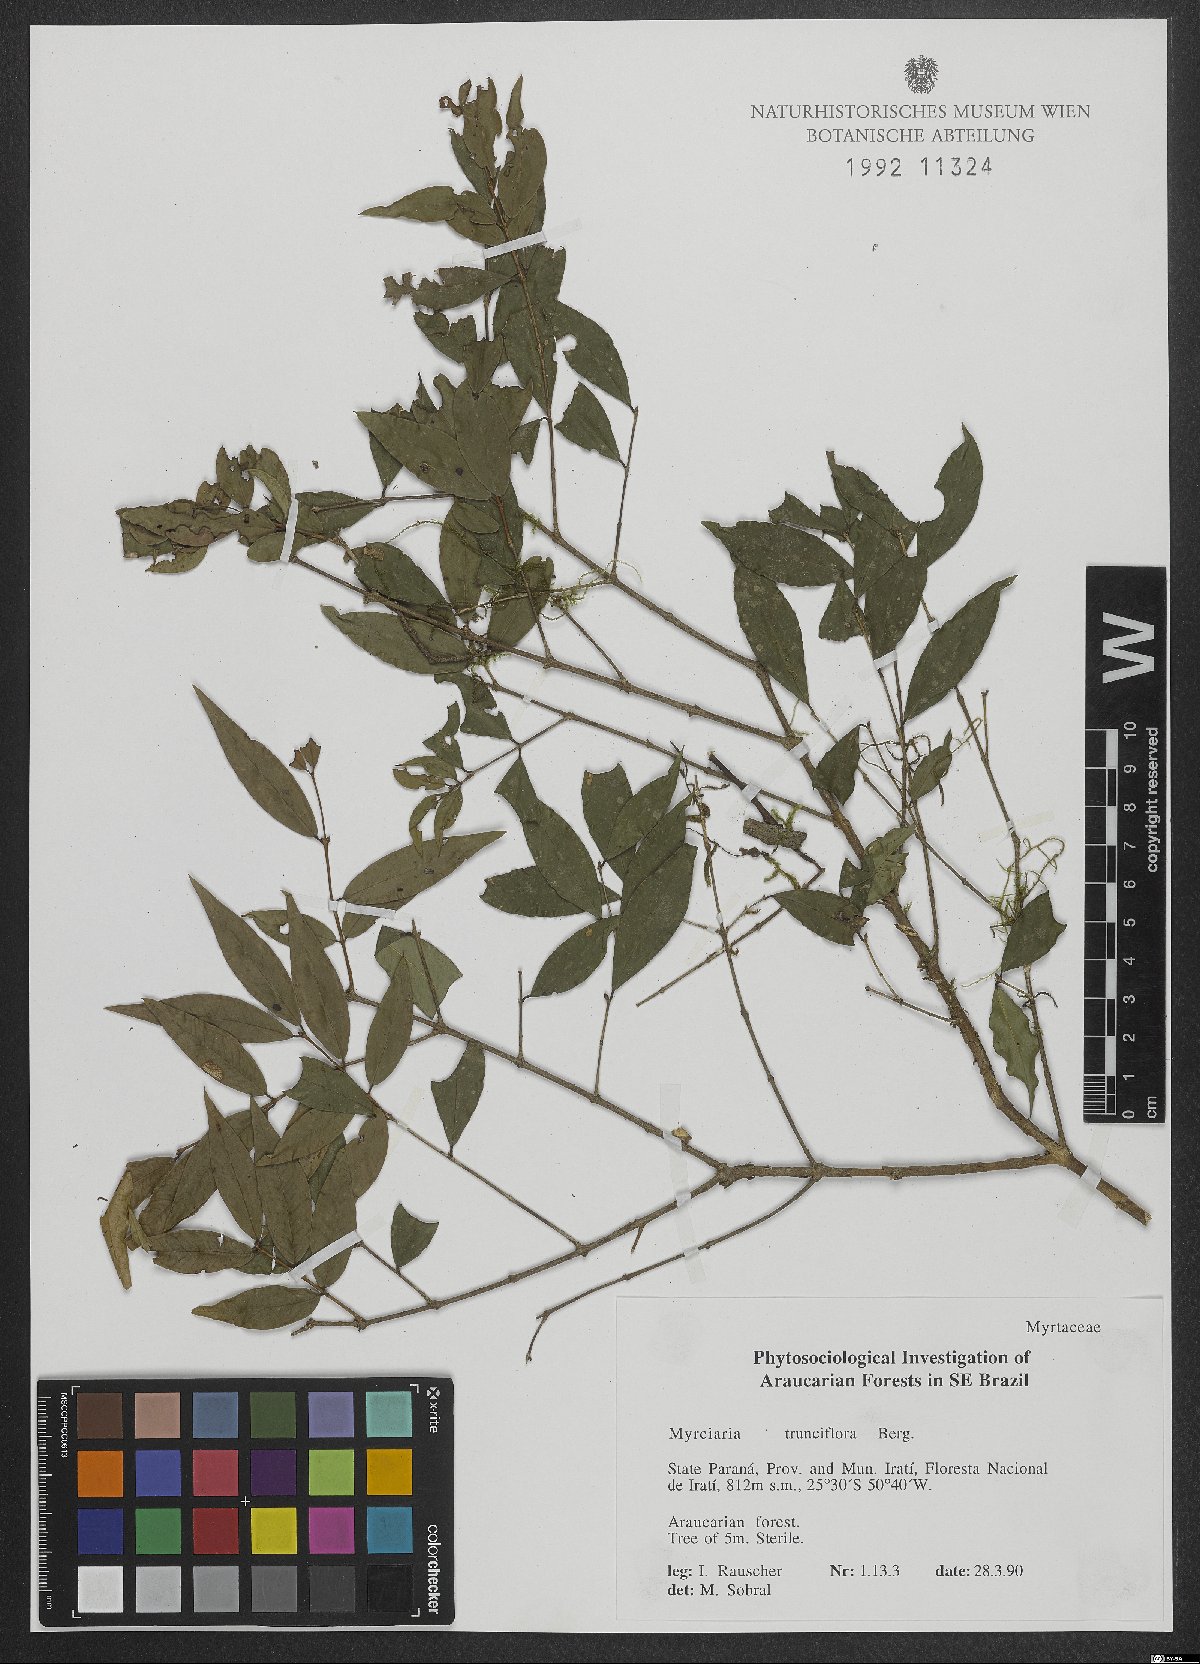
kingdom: Plantae
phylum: Tracheophyta
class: Magnoliopsida
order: Myrtales
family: Myrtaceae
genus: Plinia
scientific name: Plinia trunciflora
